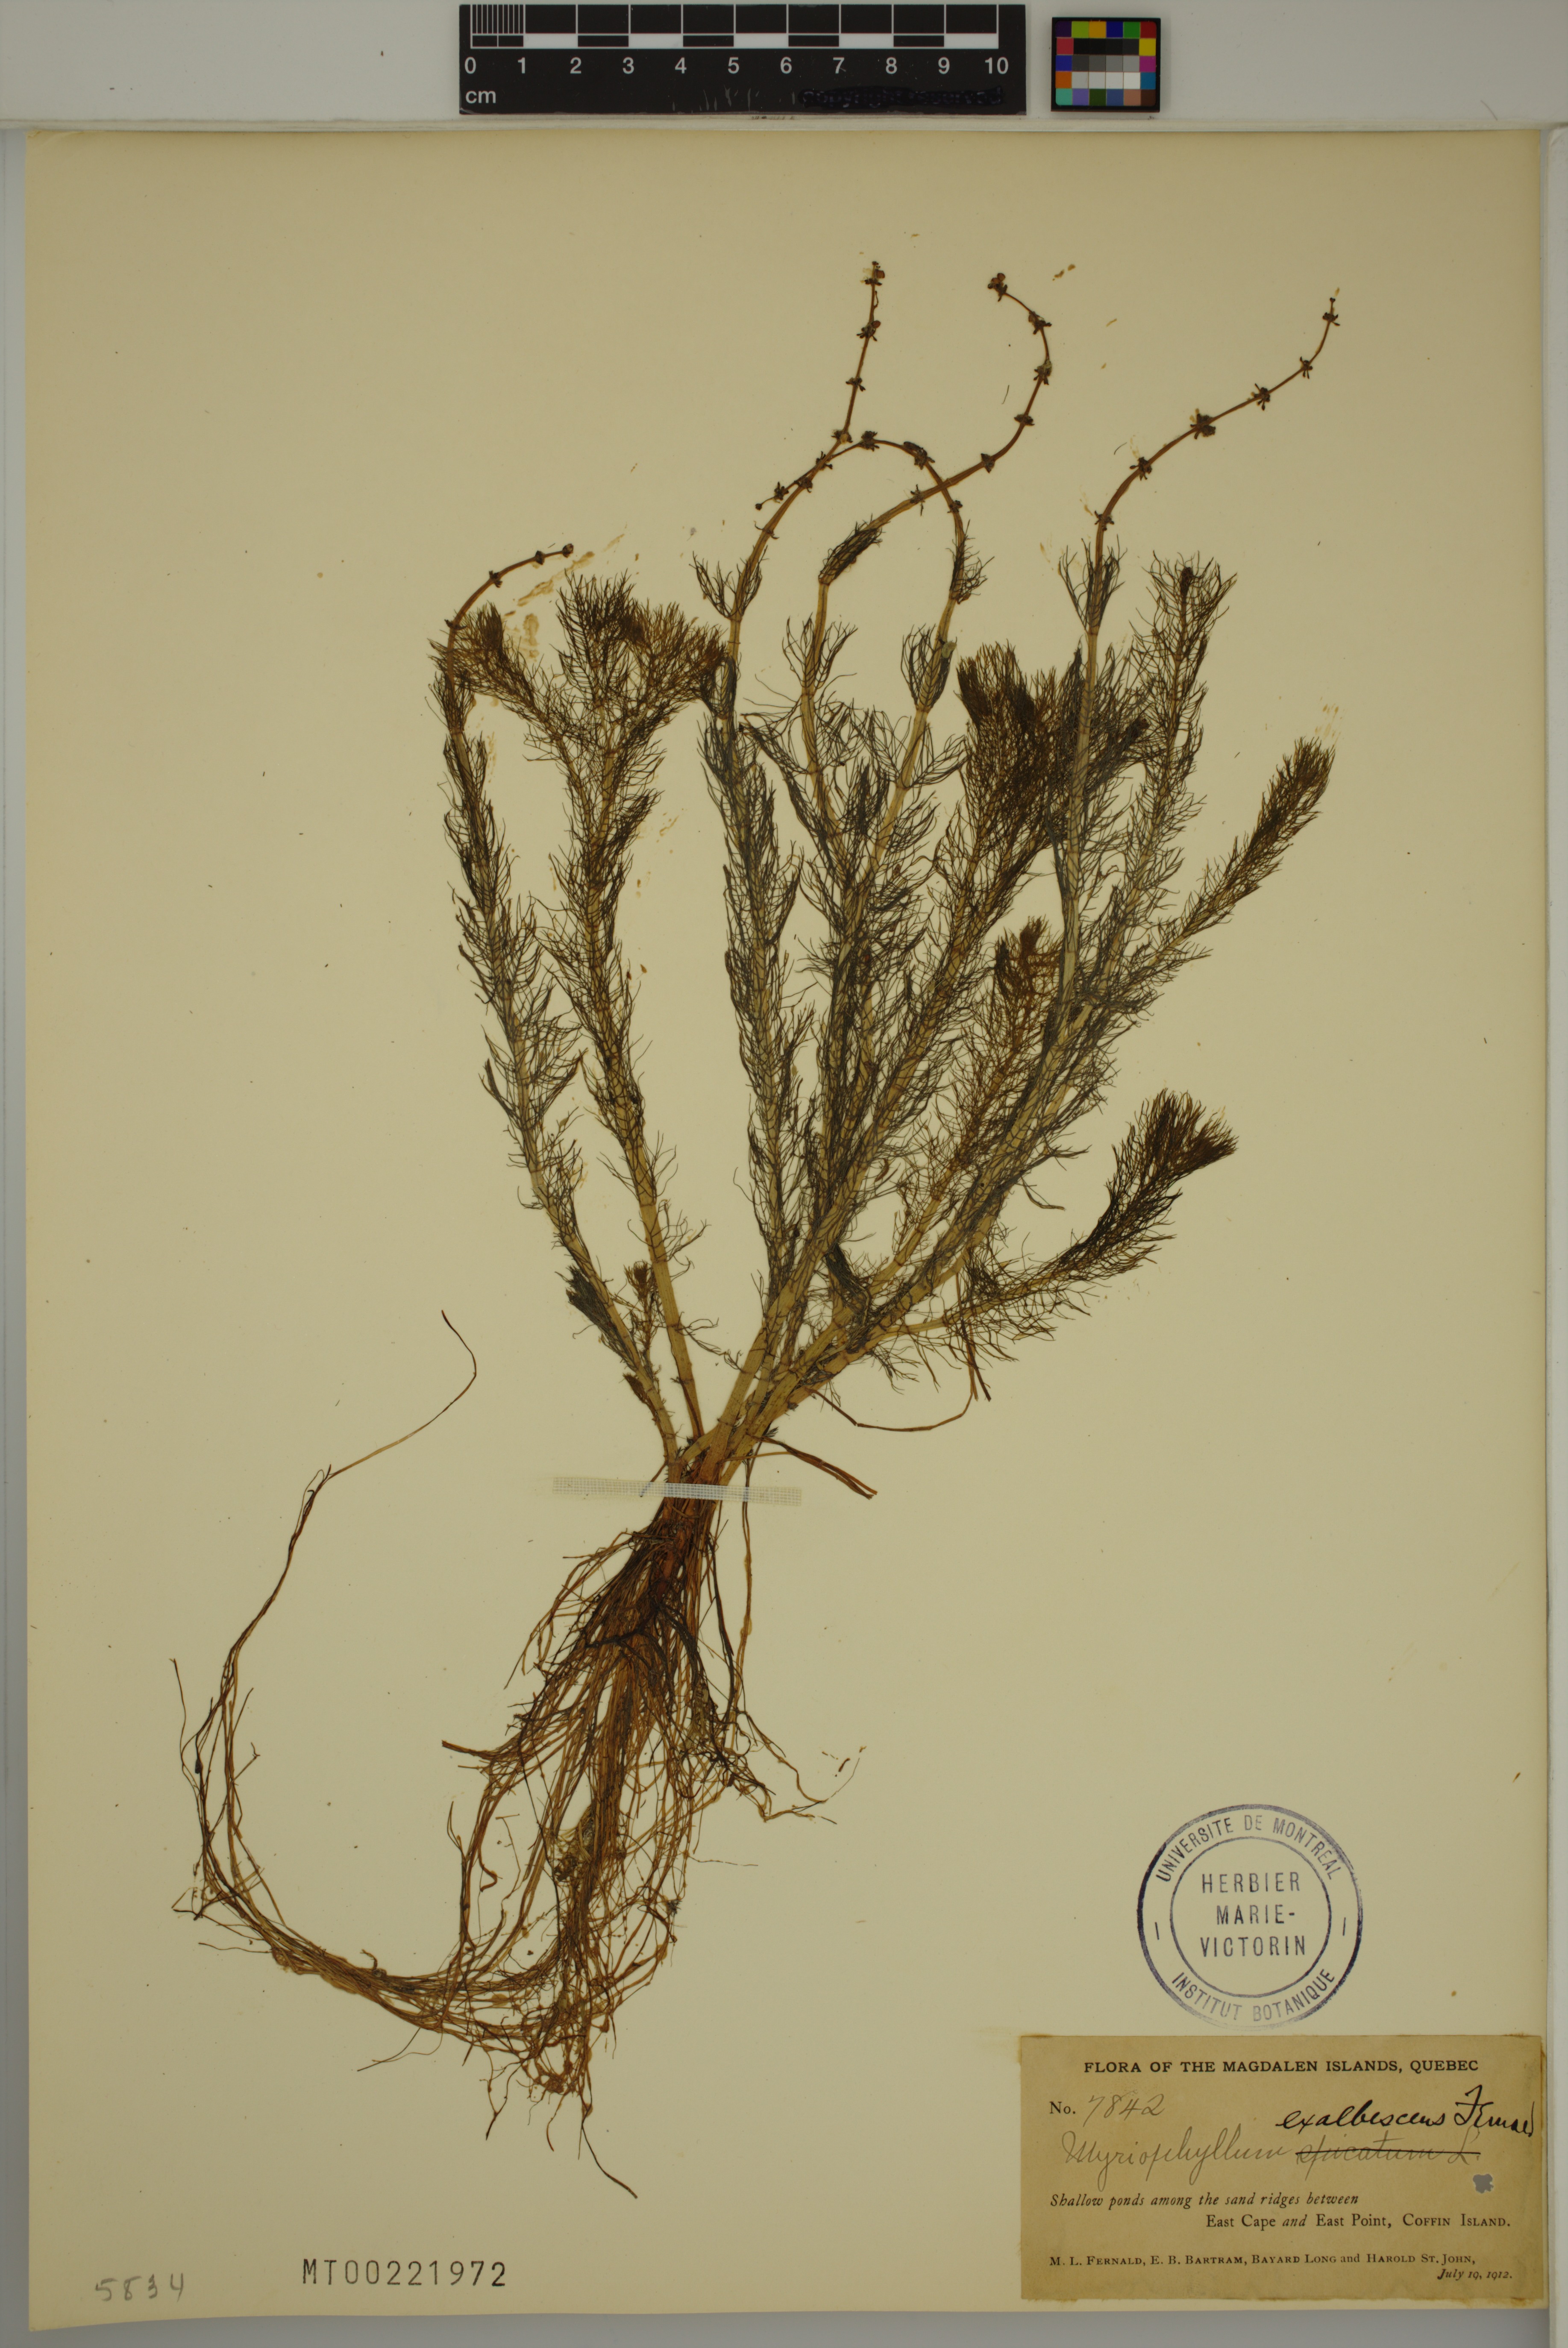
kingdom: Plantae
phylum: Tracheophyta
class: Magnoliopsida
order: Saxifragales
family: Haloragaceae
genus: Myriophyllum
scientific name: Myriophyllum sibiricum
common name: Siberian water-milfoil
